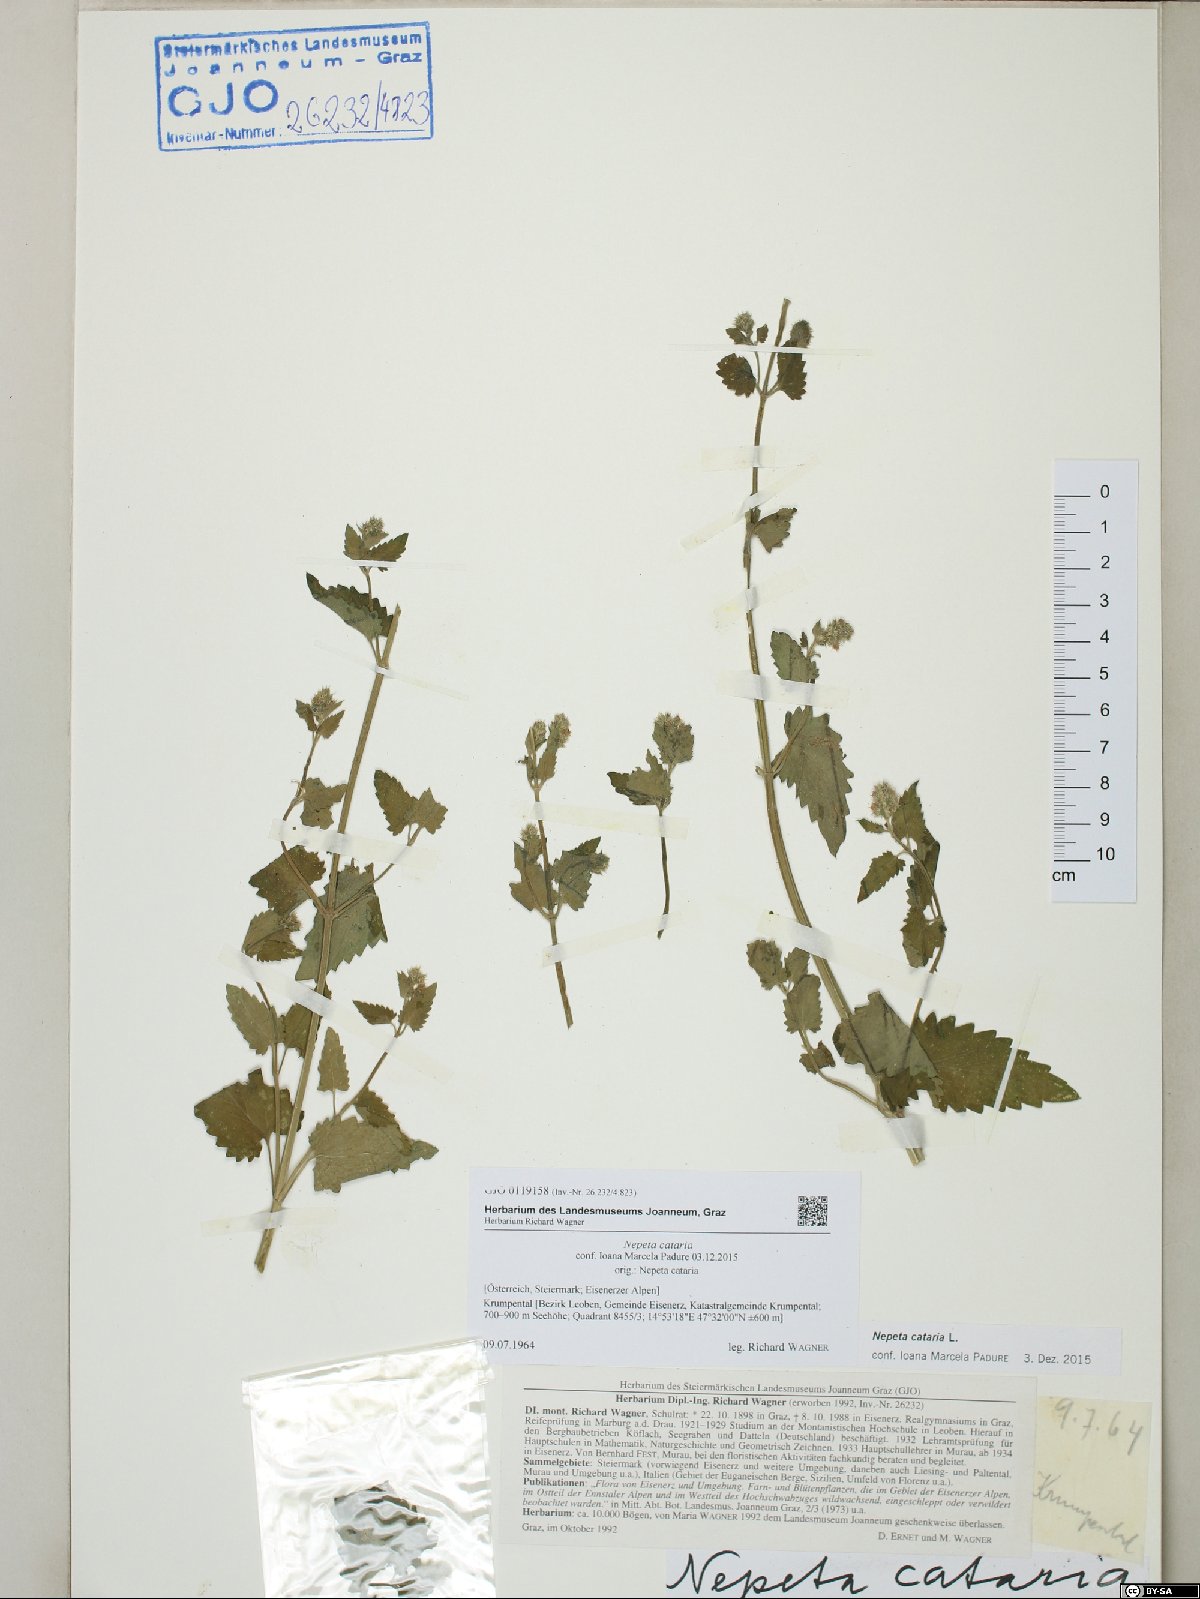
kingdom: Plantae
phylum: Tracheophyta
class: Magnoliopsida
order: Lamiales
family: Lamiaceae
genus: Nepeta
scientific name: Nepeta cataria
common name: Catnip
